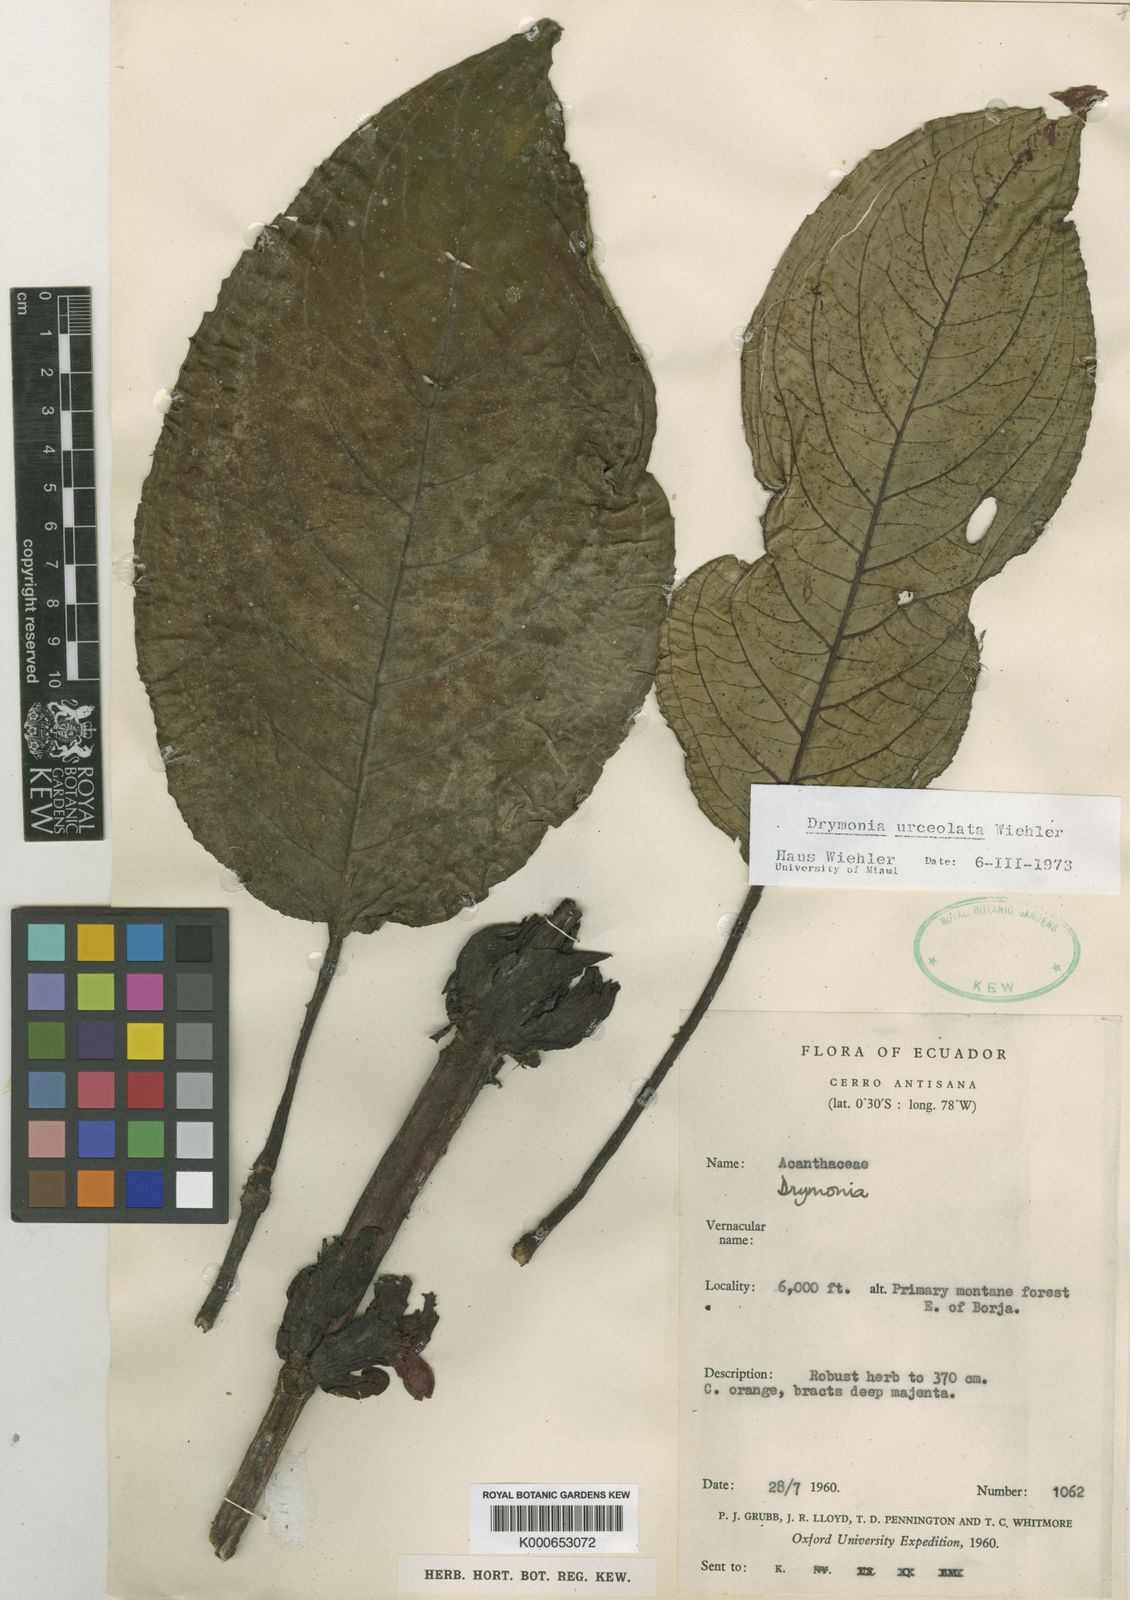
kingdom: Plantae
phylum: Tracheophyta
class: Magnoliopsida
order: Lamiales
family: Gesneriaceae
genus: Drymonia
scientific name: Drymonia urceolata
